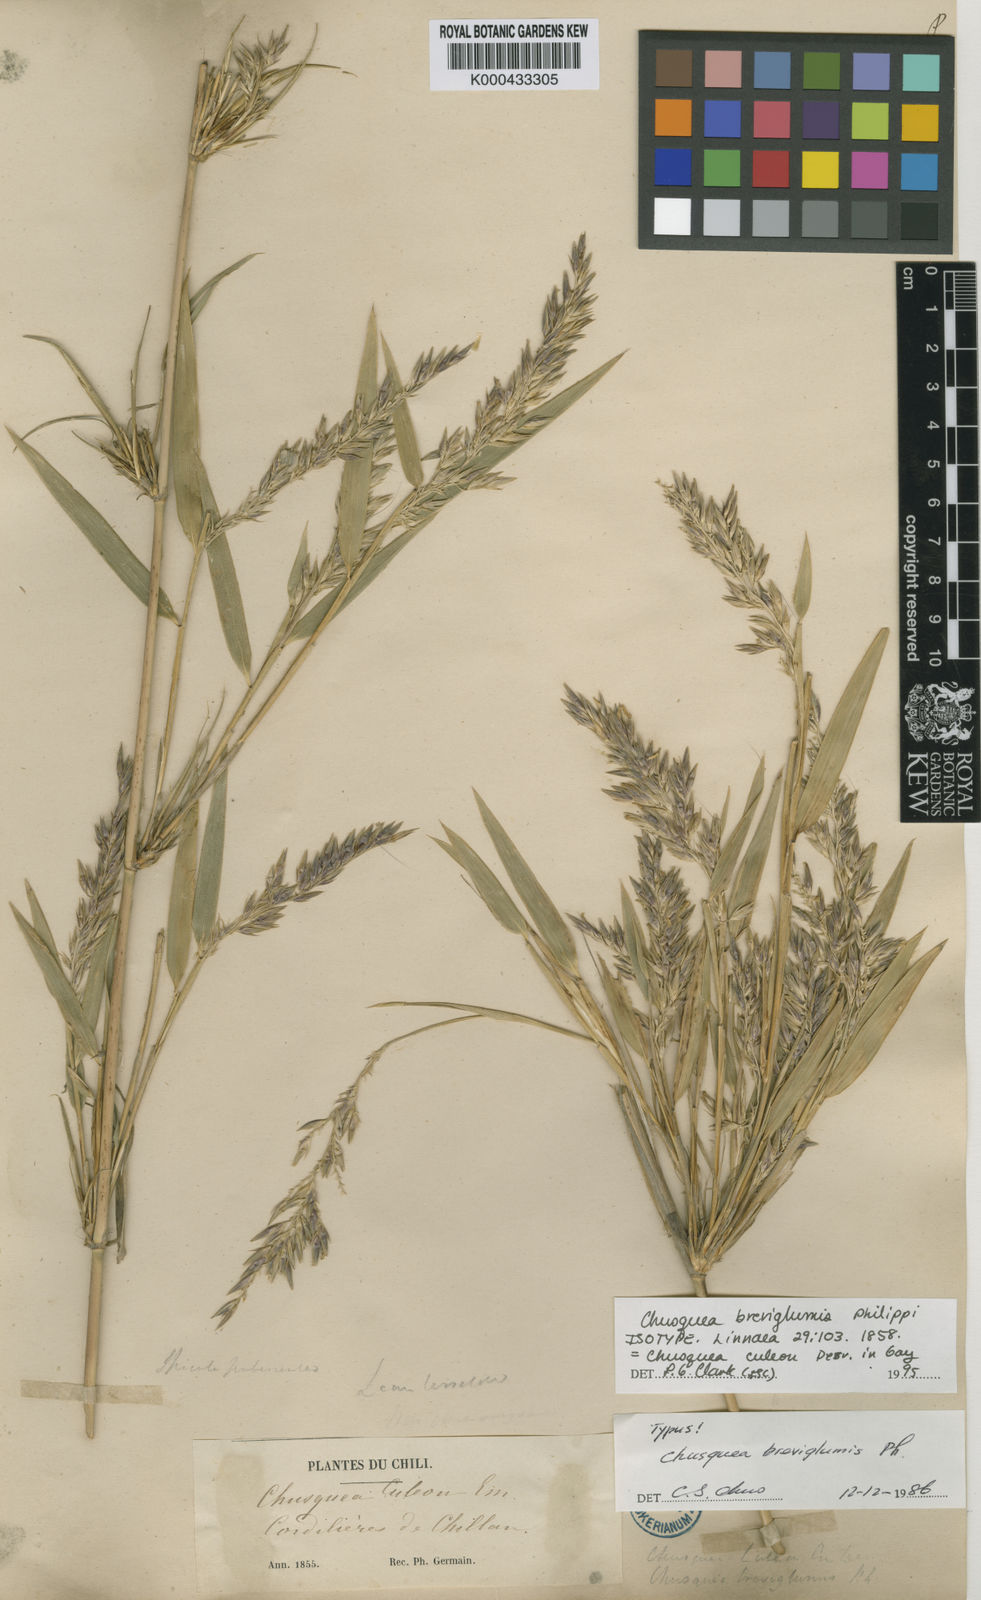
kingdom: Plantae
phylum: Tracheophyta
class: Liliopsida
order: Poales
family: Poaceae
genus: Chusquea
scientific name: Chusquea culeou
